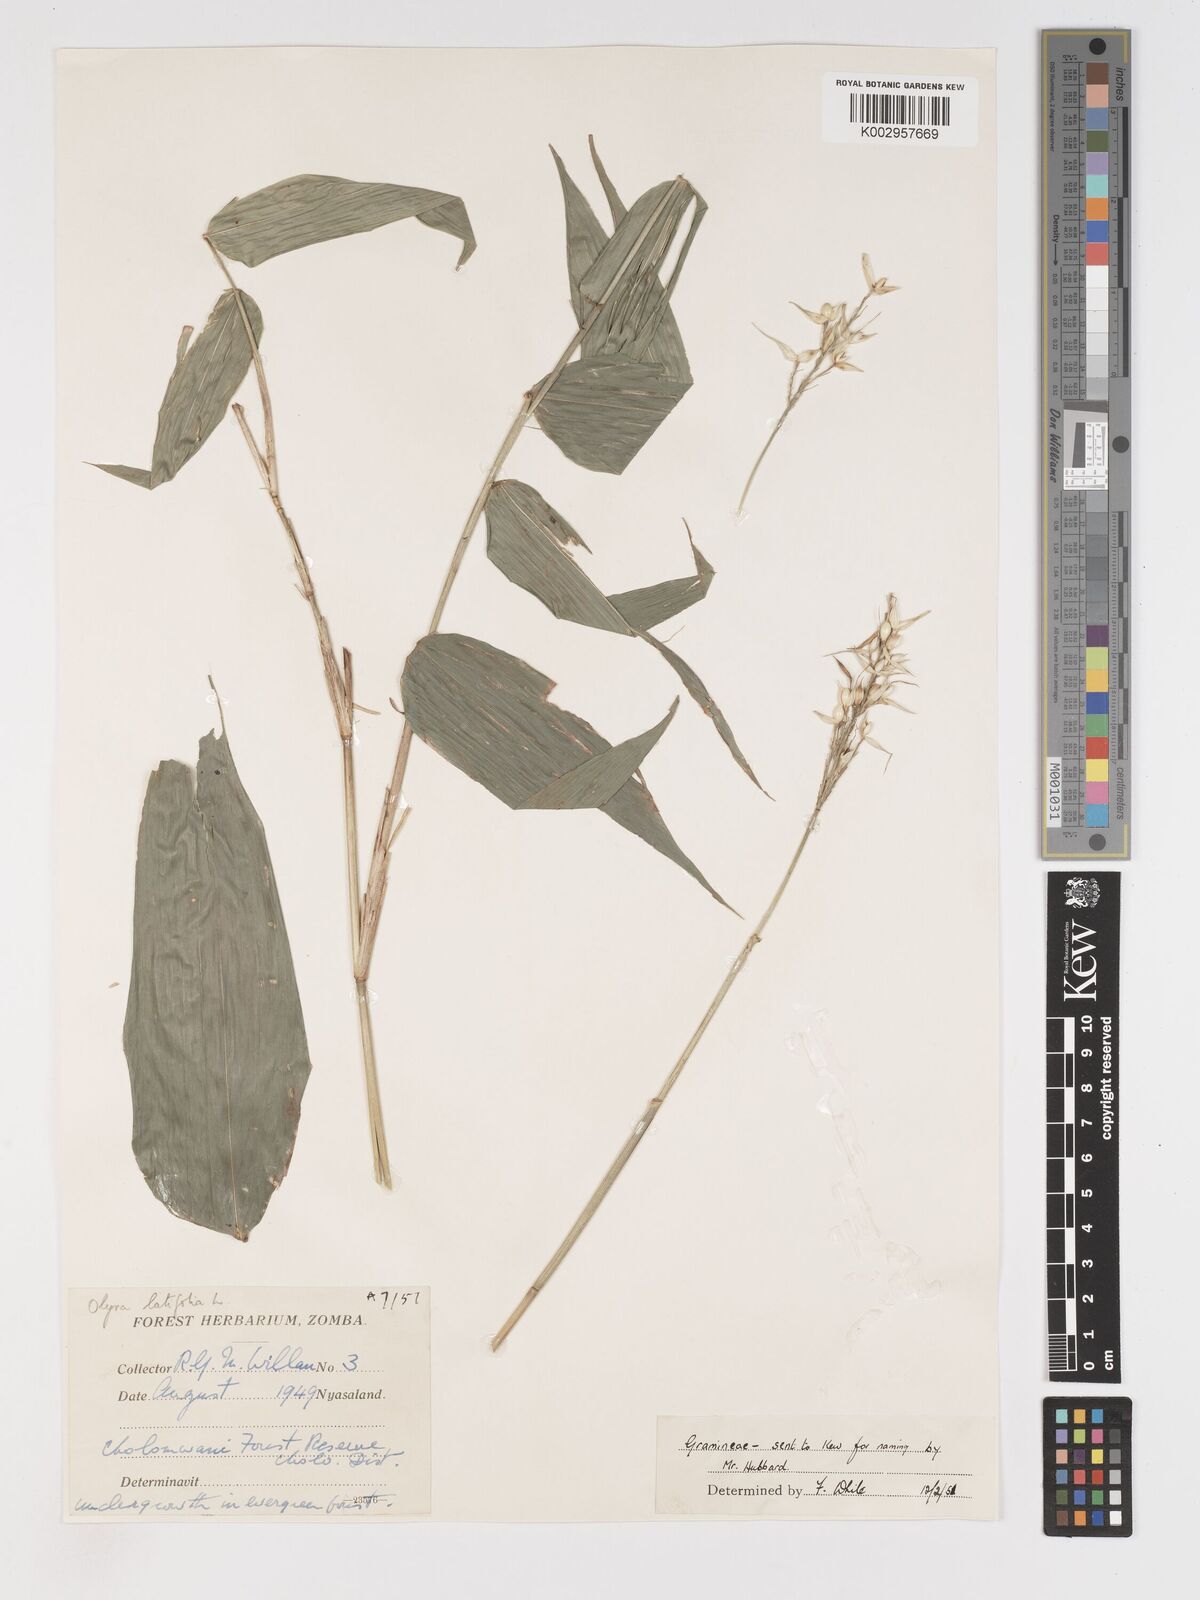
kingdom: Plantae
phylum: Tracheophyta
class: Liliopsida
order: Poales
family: Poaceae
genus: Olyra
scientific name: Olyra latifolia
